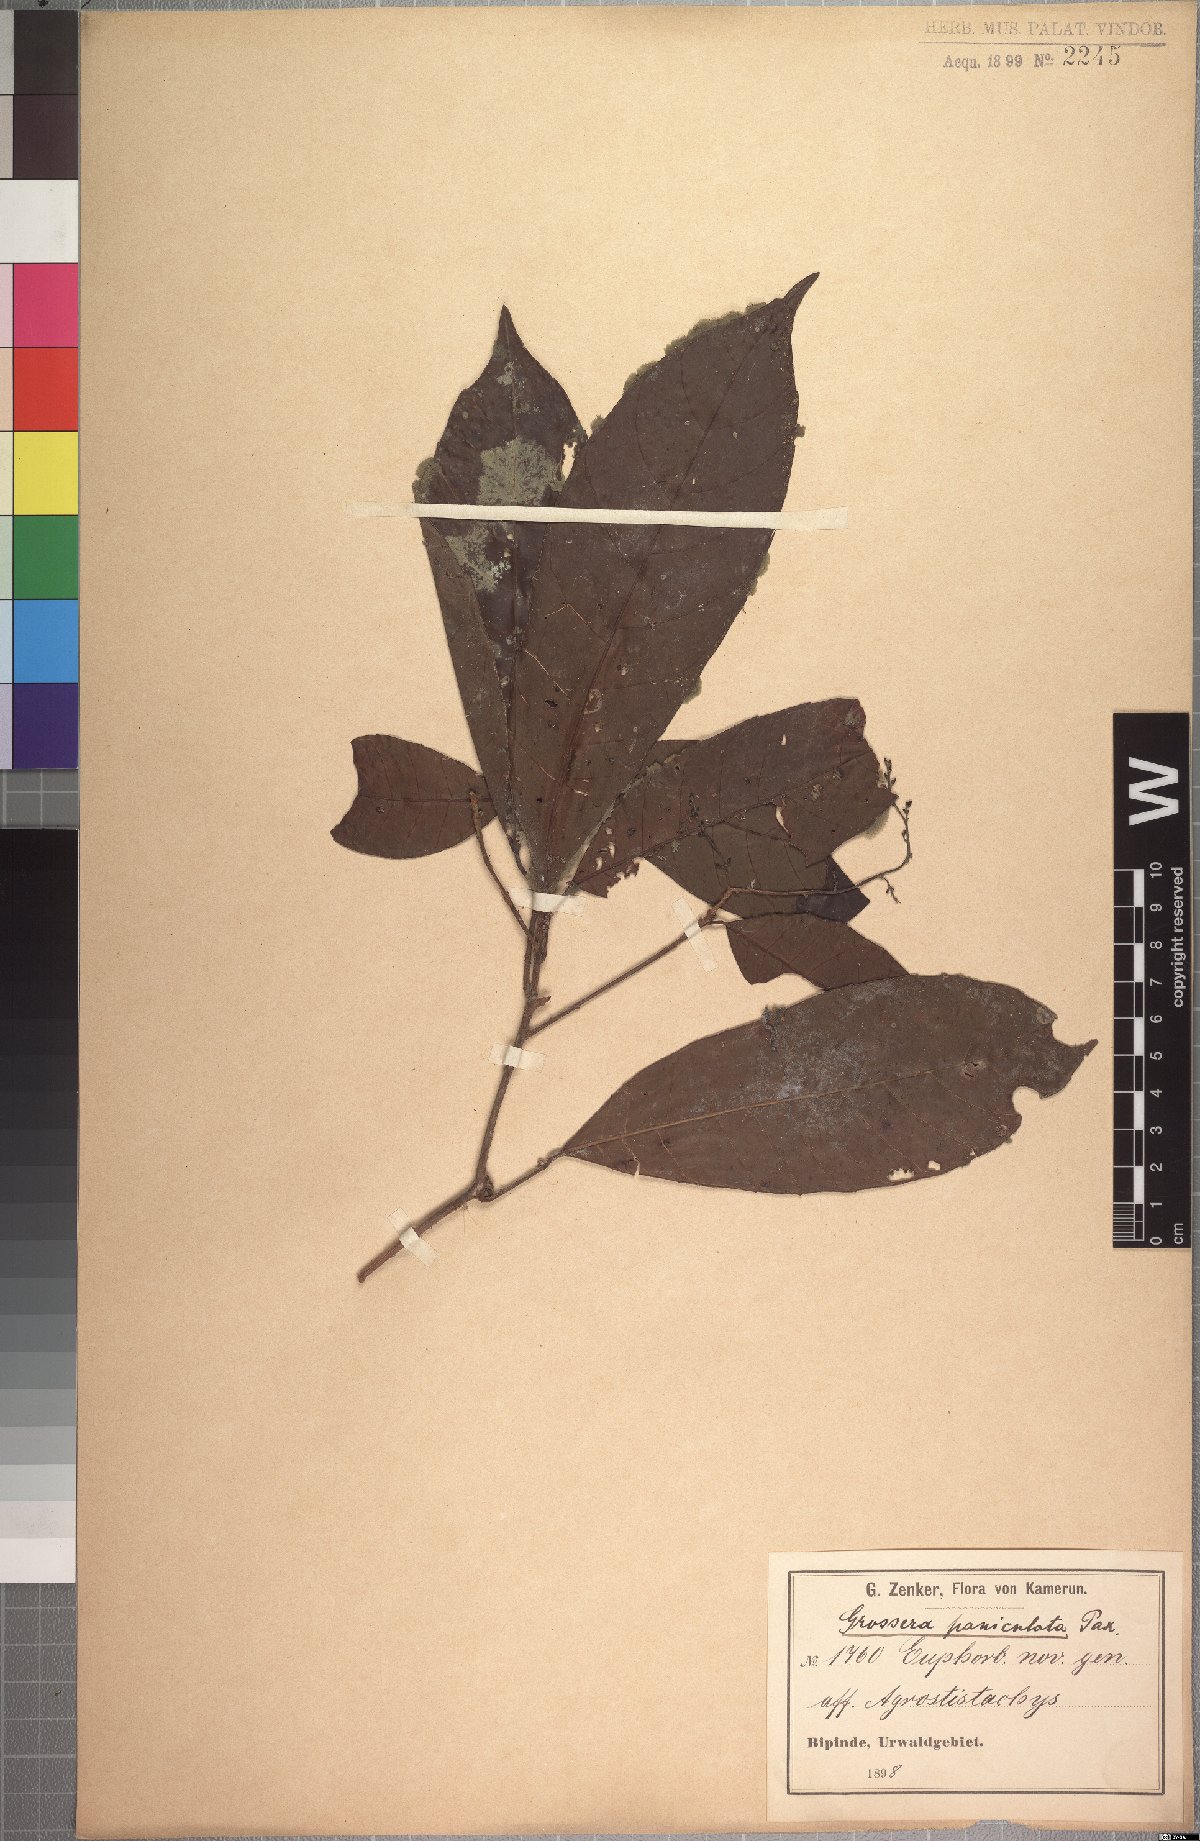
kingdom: Plantae
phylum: Tracheophyta
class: Magnoliopsida
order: Malpighiales
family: Euphorbiaceae
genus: Grossera
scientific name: Grossera paniculata
